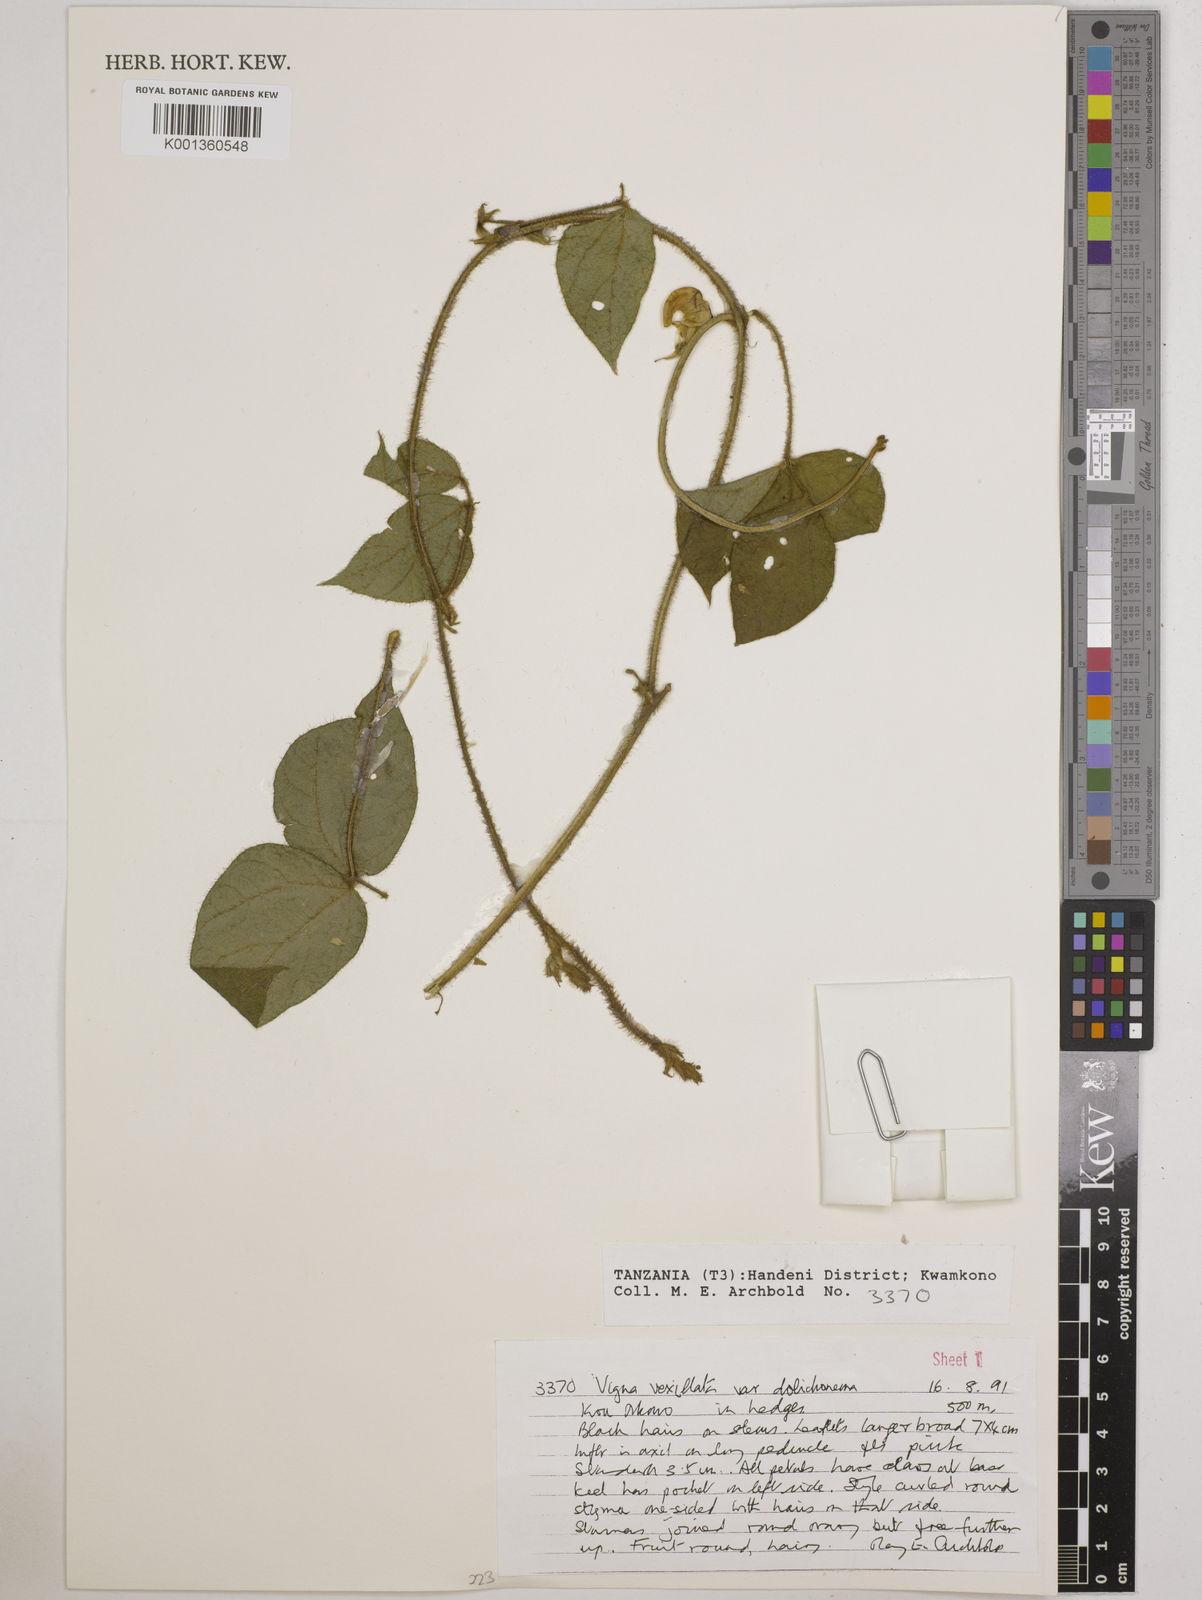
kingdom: Plantae
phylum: Tracheophyta
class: Magnoliopsida
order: Fabales
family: Fabaceae
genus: Vigna
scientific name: Vigna vexillata
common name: Zombi pea
